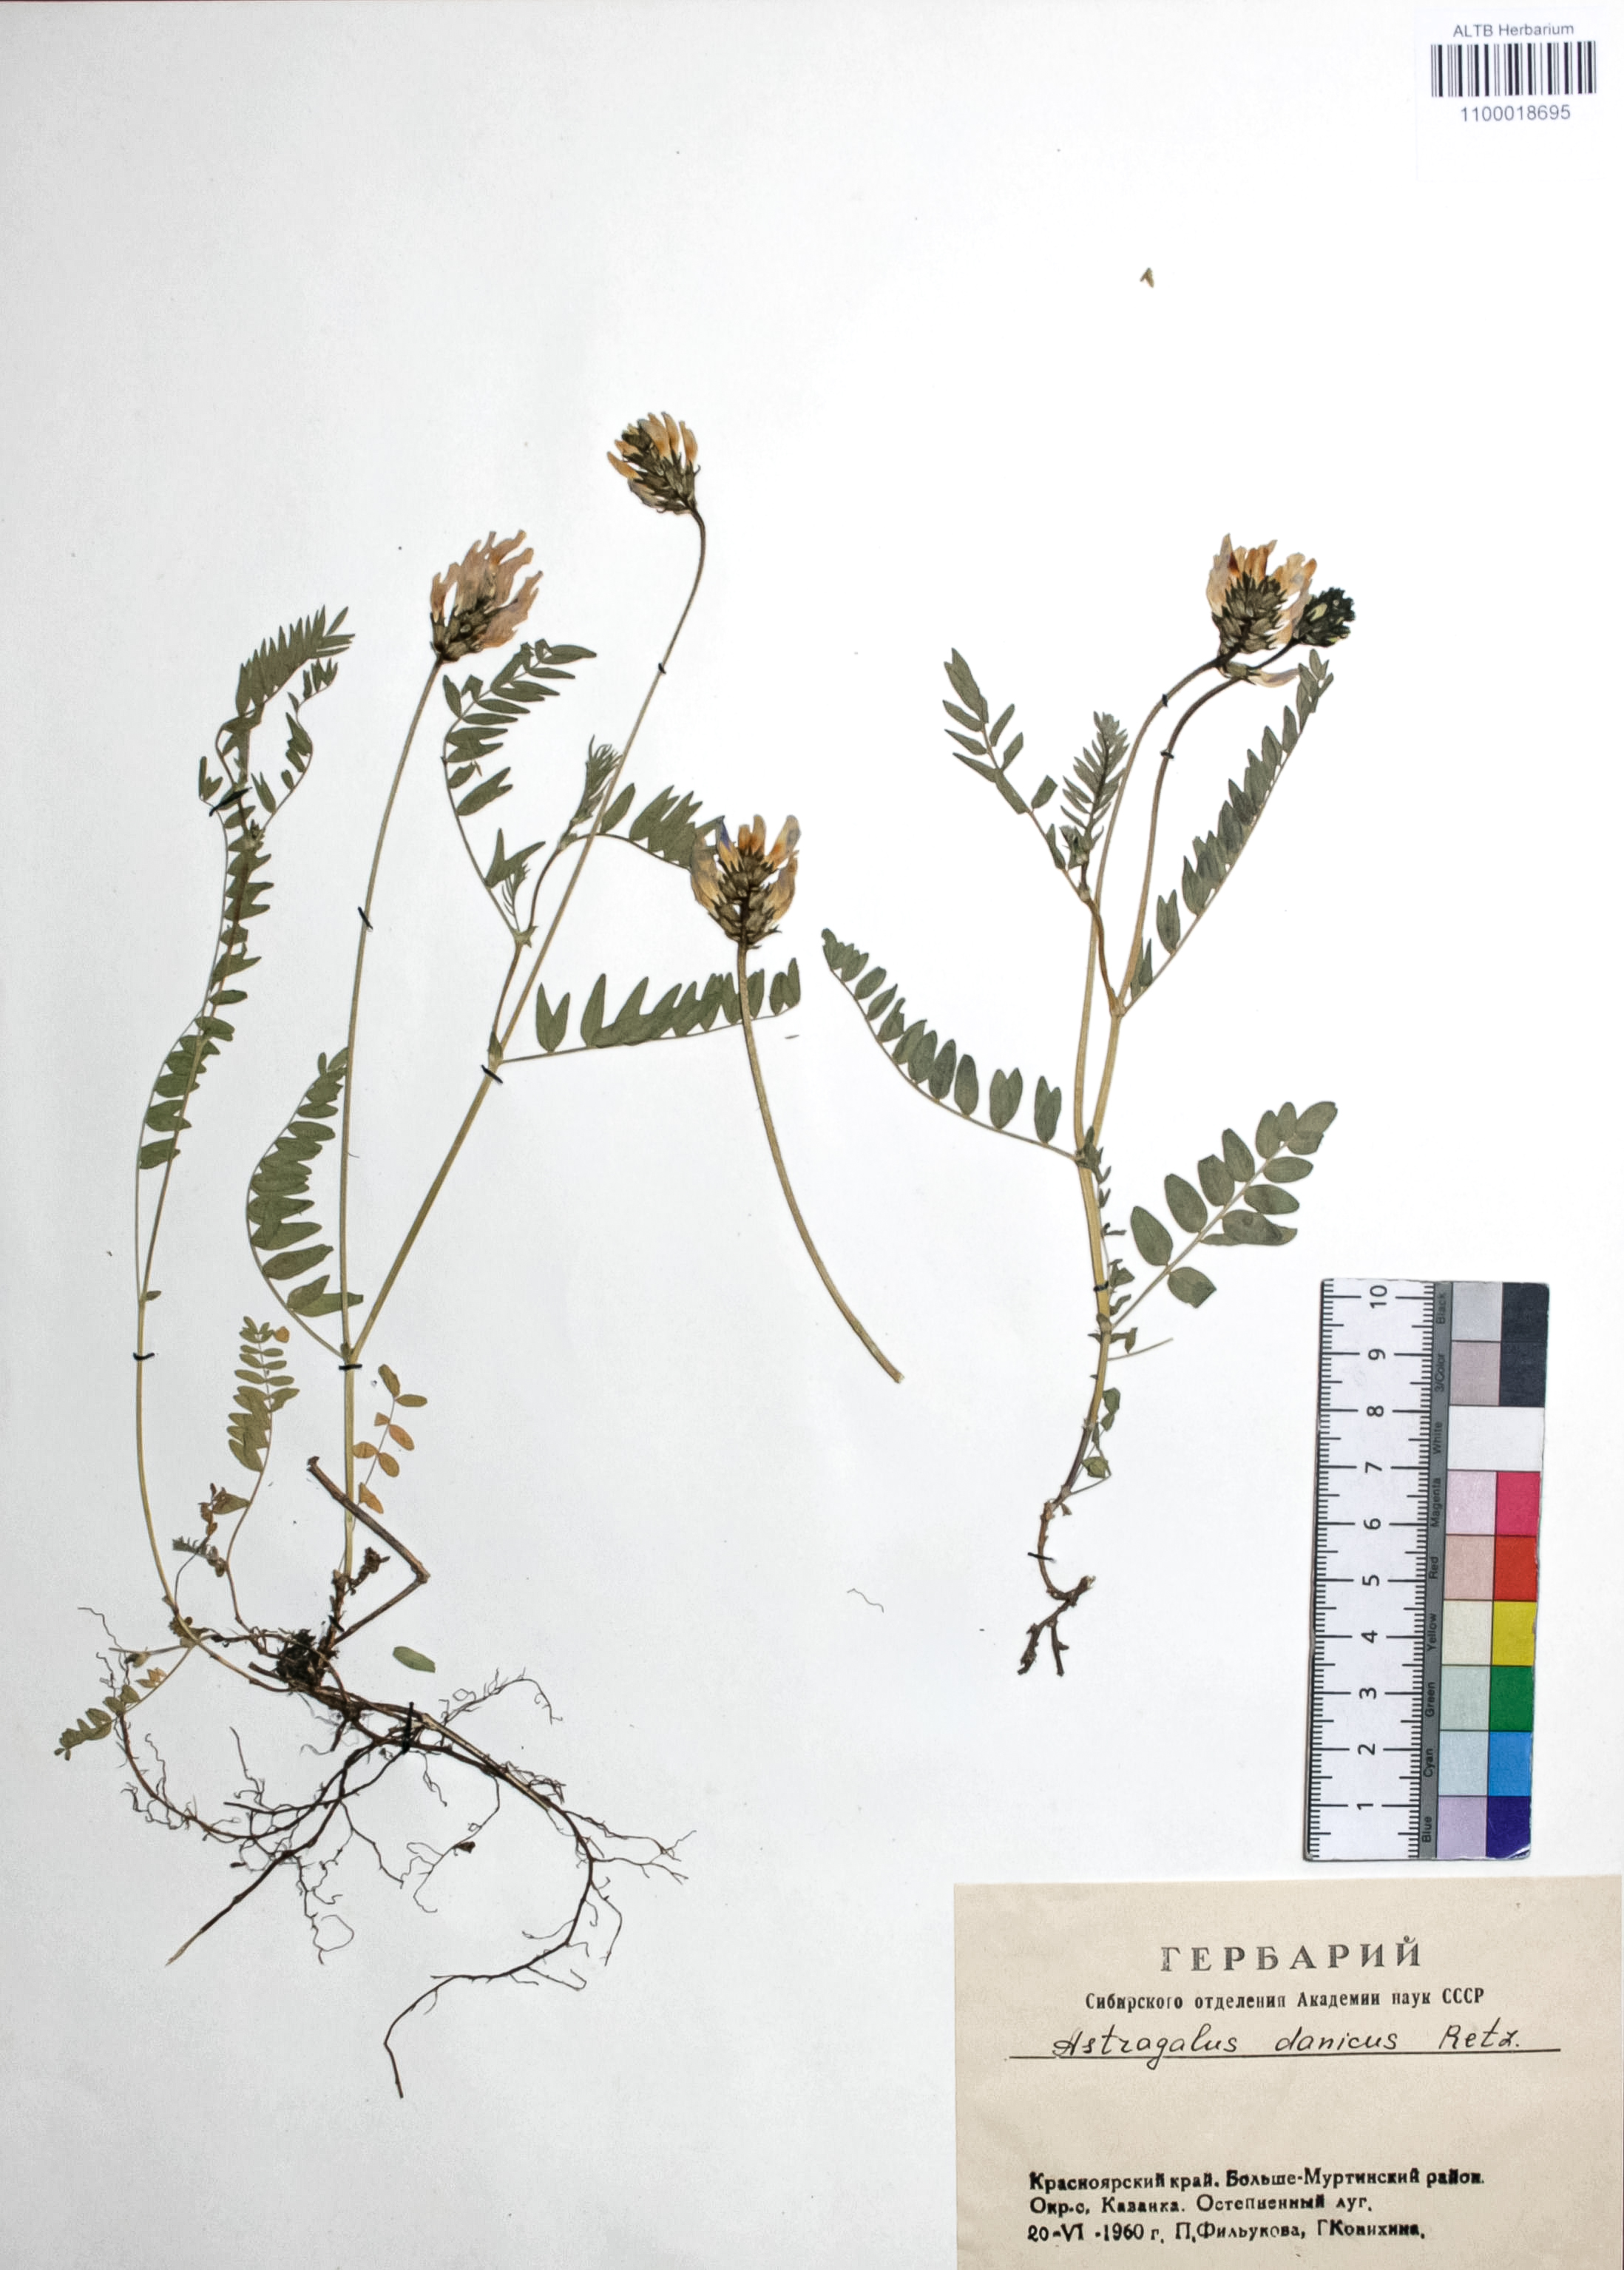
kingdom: Plantae
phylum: Tracheophyta
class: Magnoliopsida
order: Fabales
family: Fabaceae
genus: Astragalus
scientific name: Astragalus danicus
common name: Purple milk-vetch
